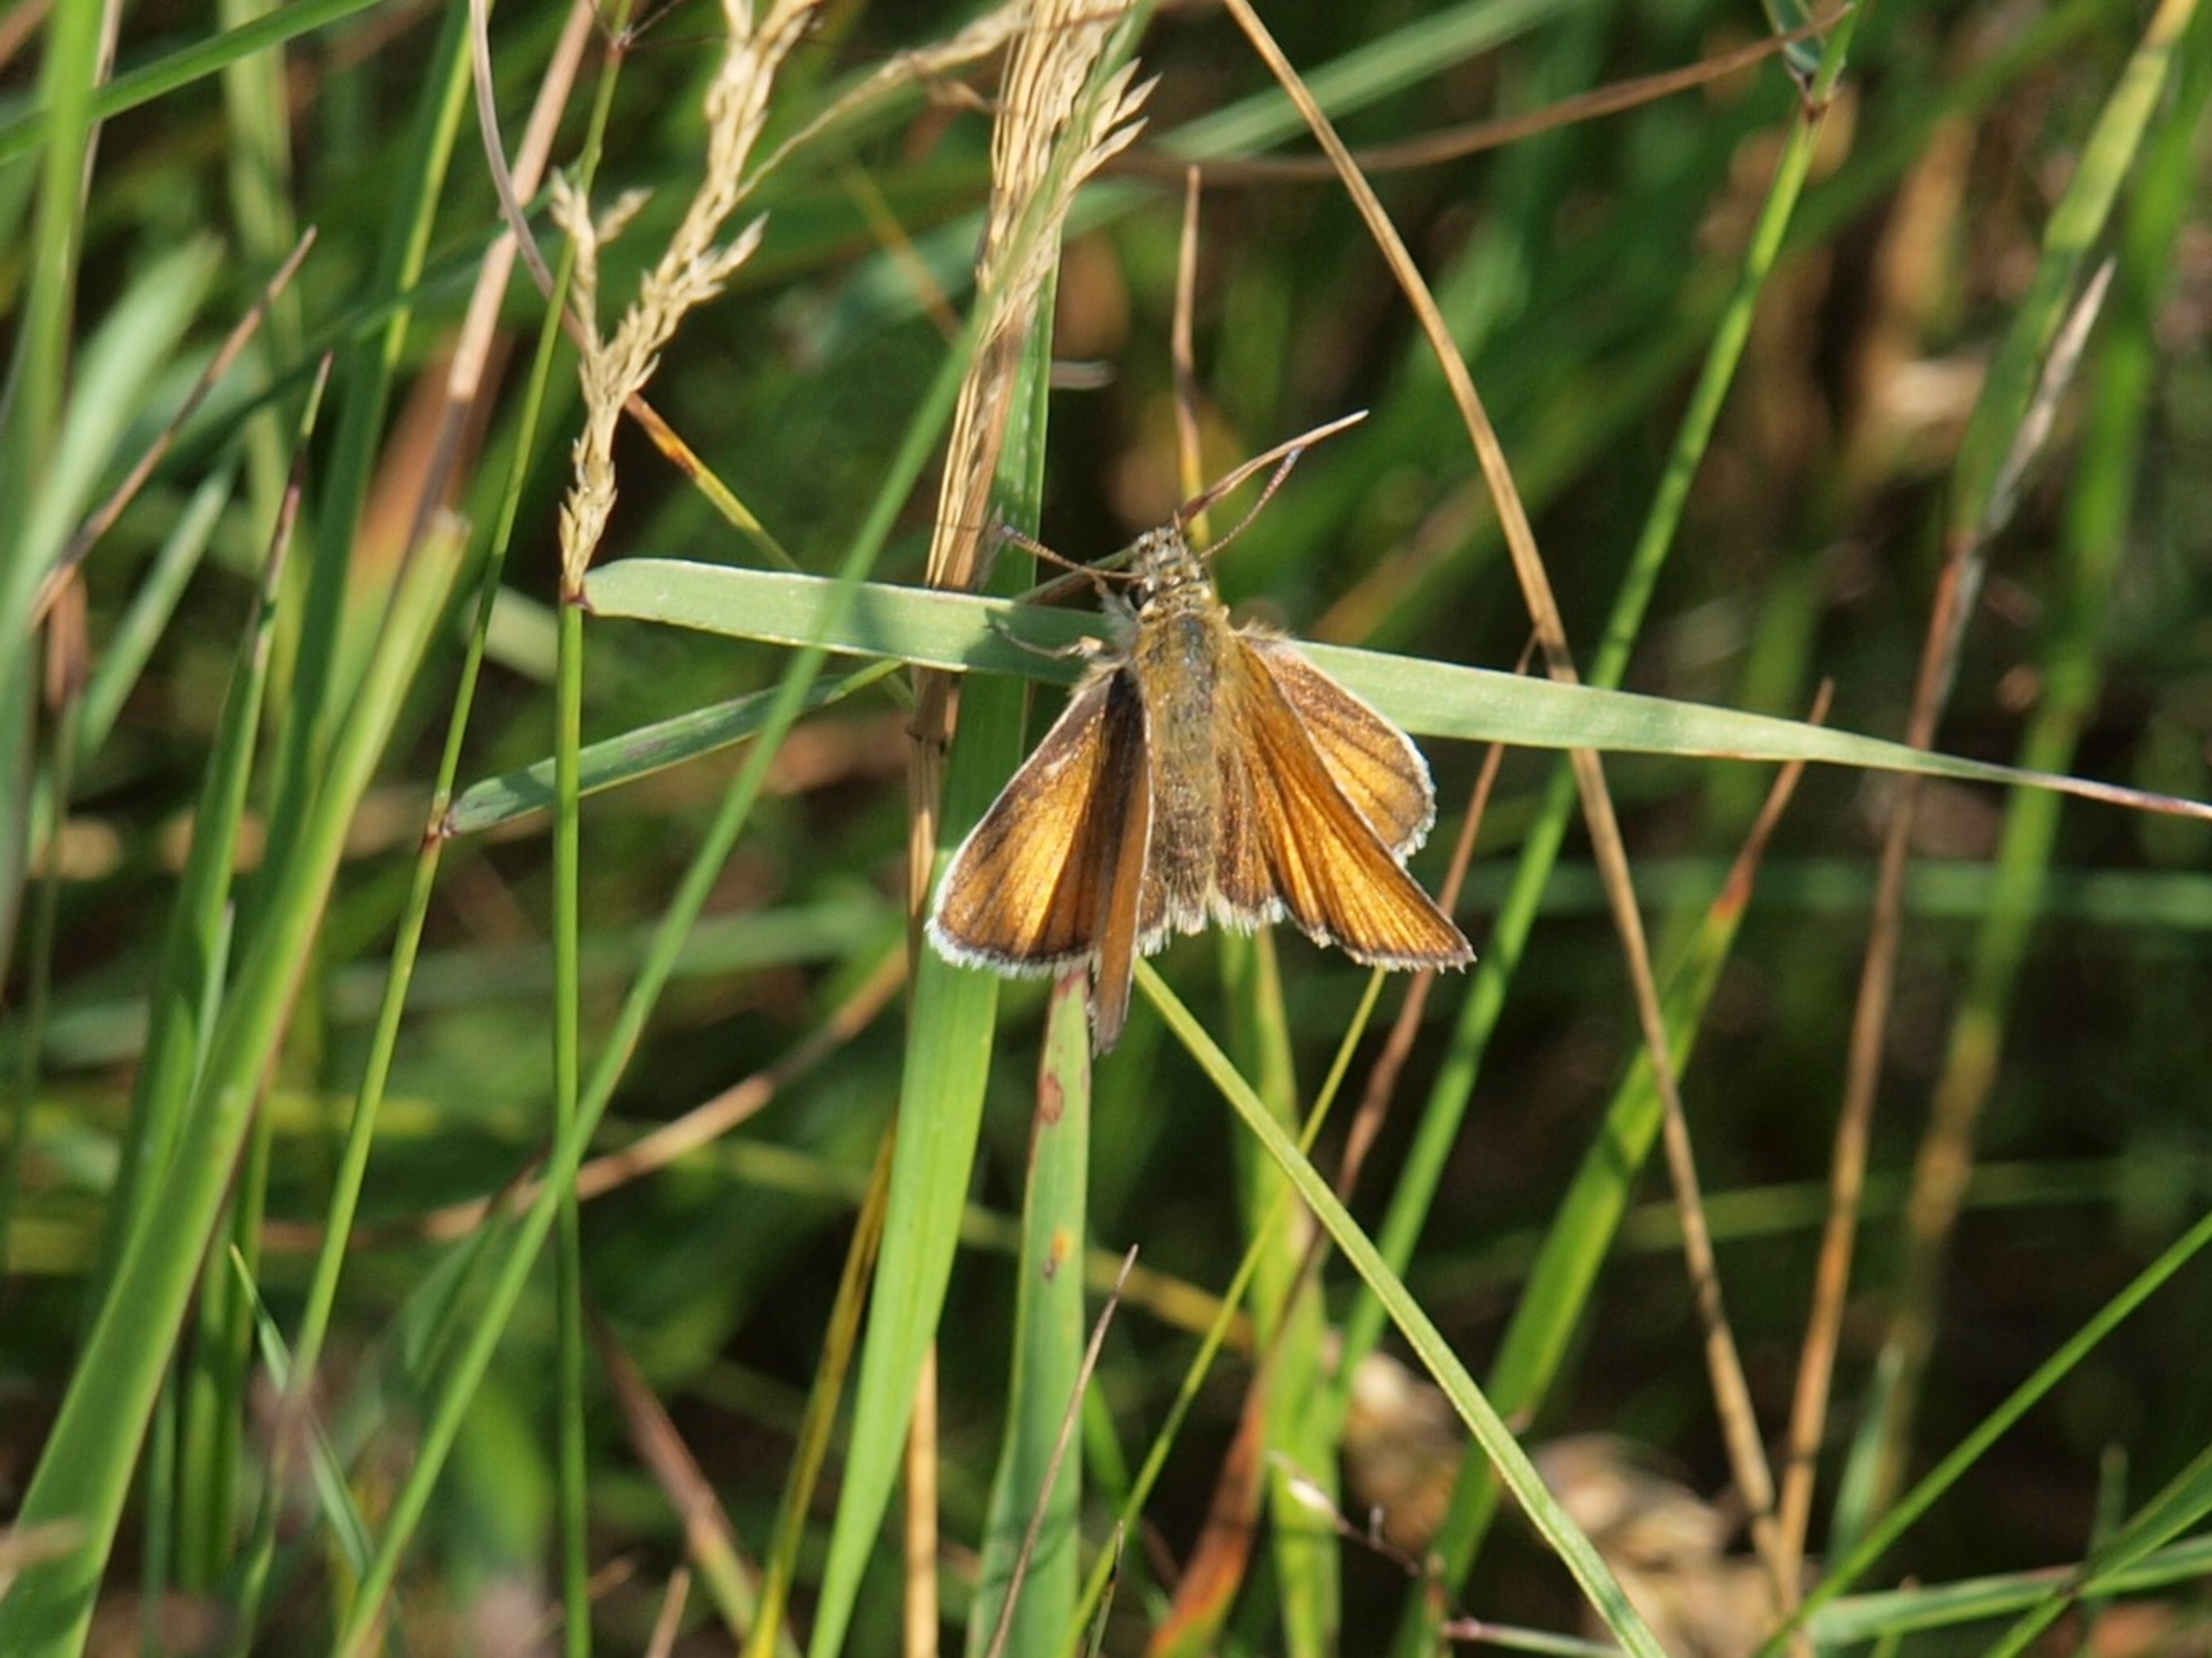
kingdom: Animalia
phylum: Arthropoda
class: Insecta
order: Lepidoptera
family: Hesperiidae
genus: Thymelicus
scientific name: Thymelicus lineola
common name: Stregbredpande
